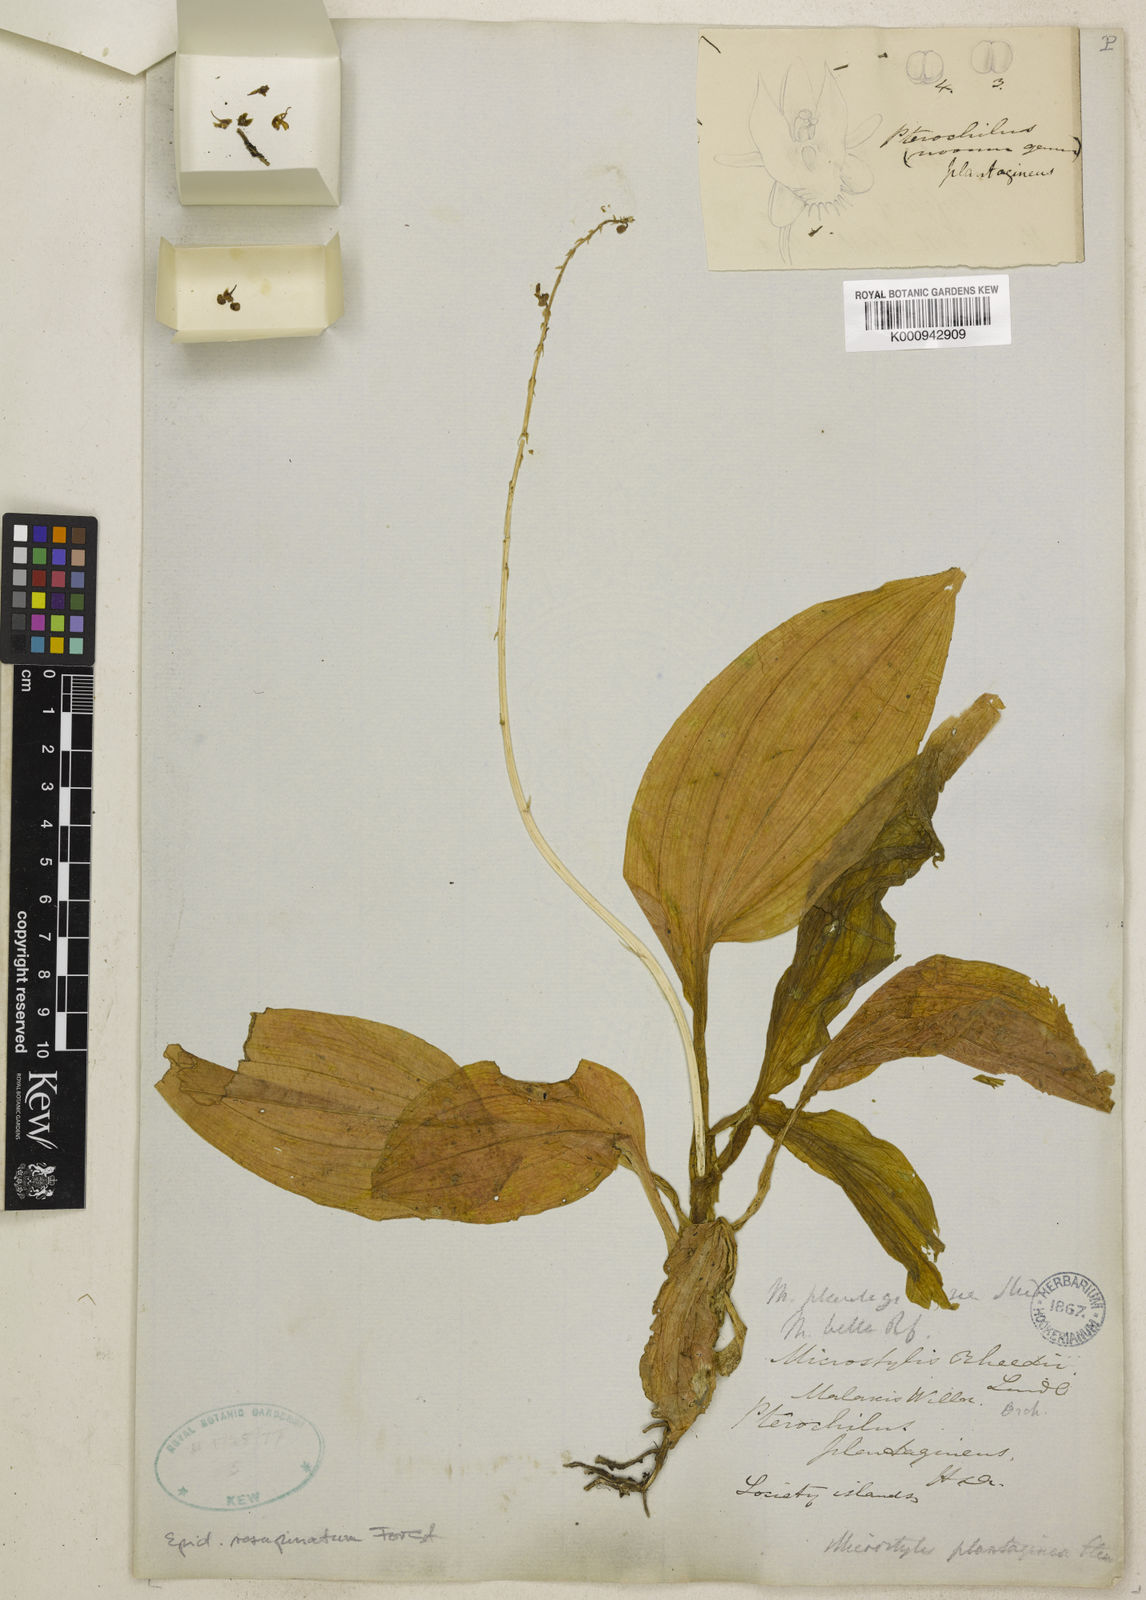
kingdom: Plantae
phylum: Tracheophyta
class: Liliopsida
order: Asparagales
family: Orchidaceae
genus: Crepidium
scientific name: Crepidium resupinatum
